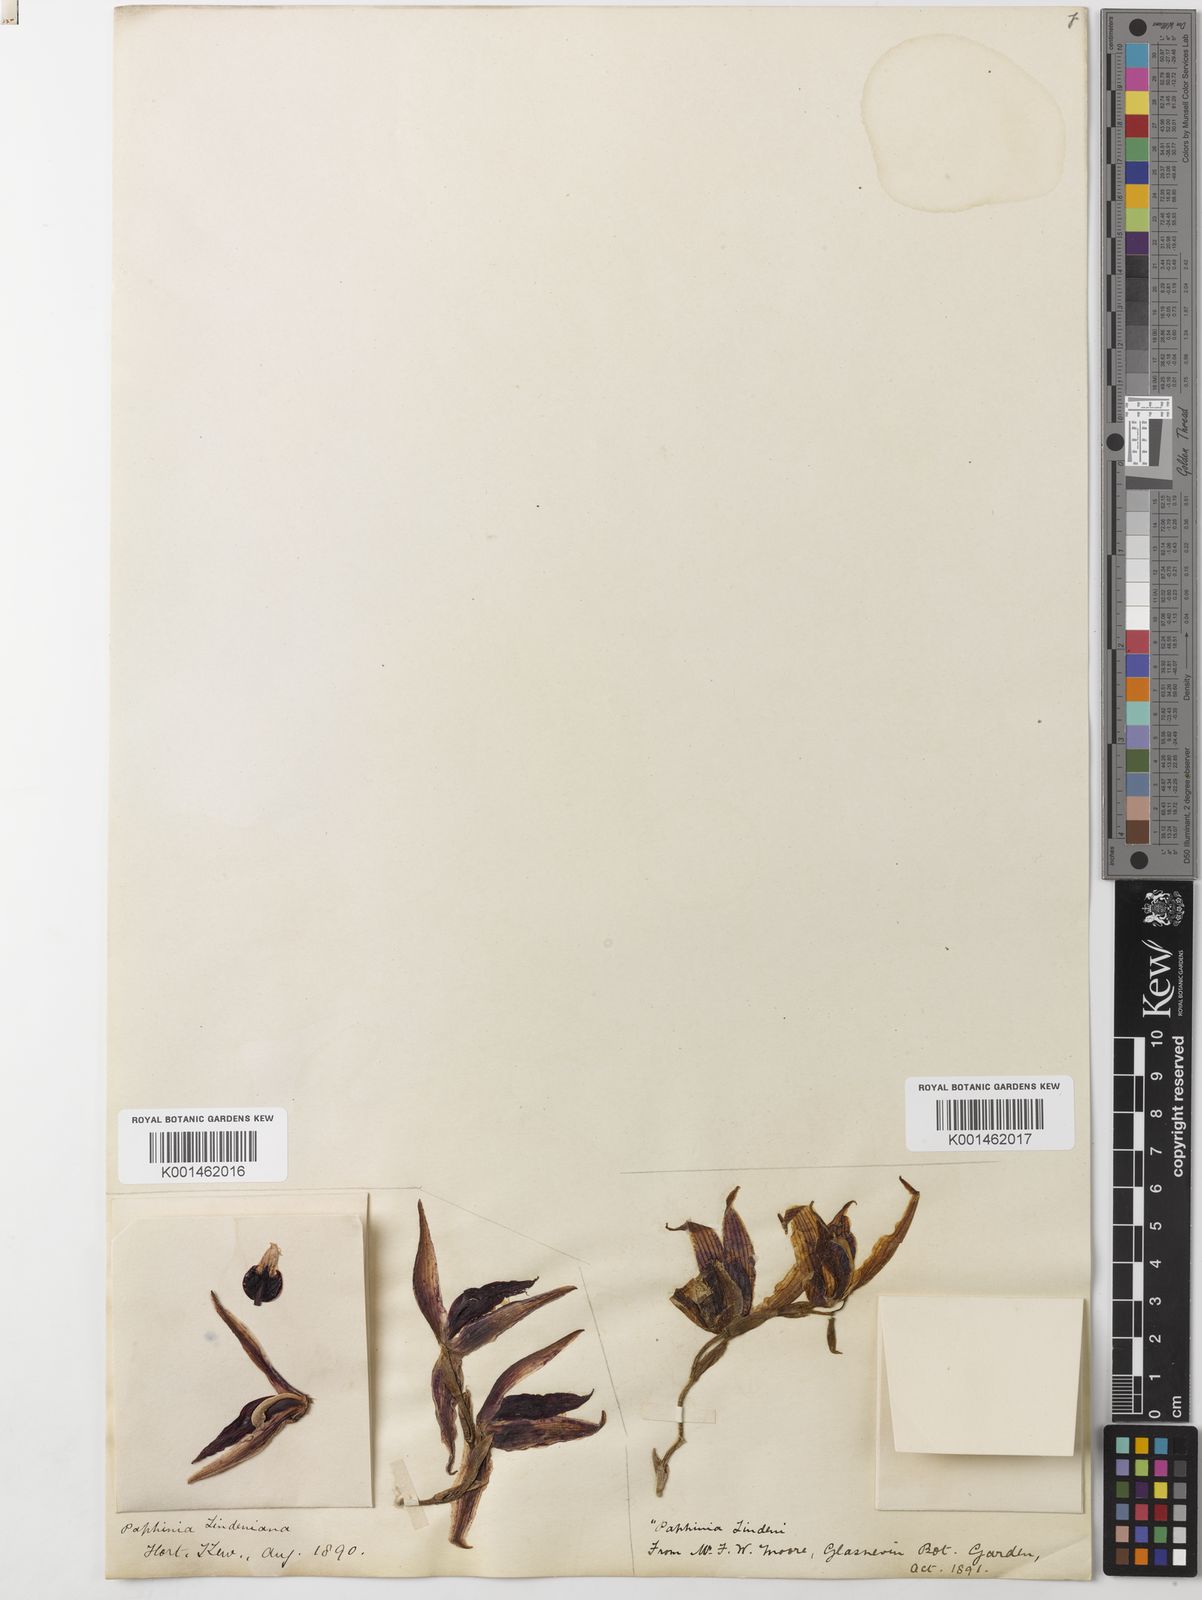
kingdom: Plantae
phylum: Tracheophyta
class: Liliopsida
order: Asparagales
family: Orchidaceae
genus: Paphinia
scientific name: Paphinia lindeniana
